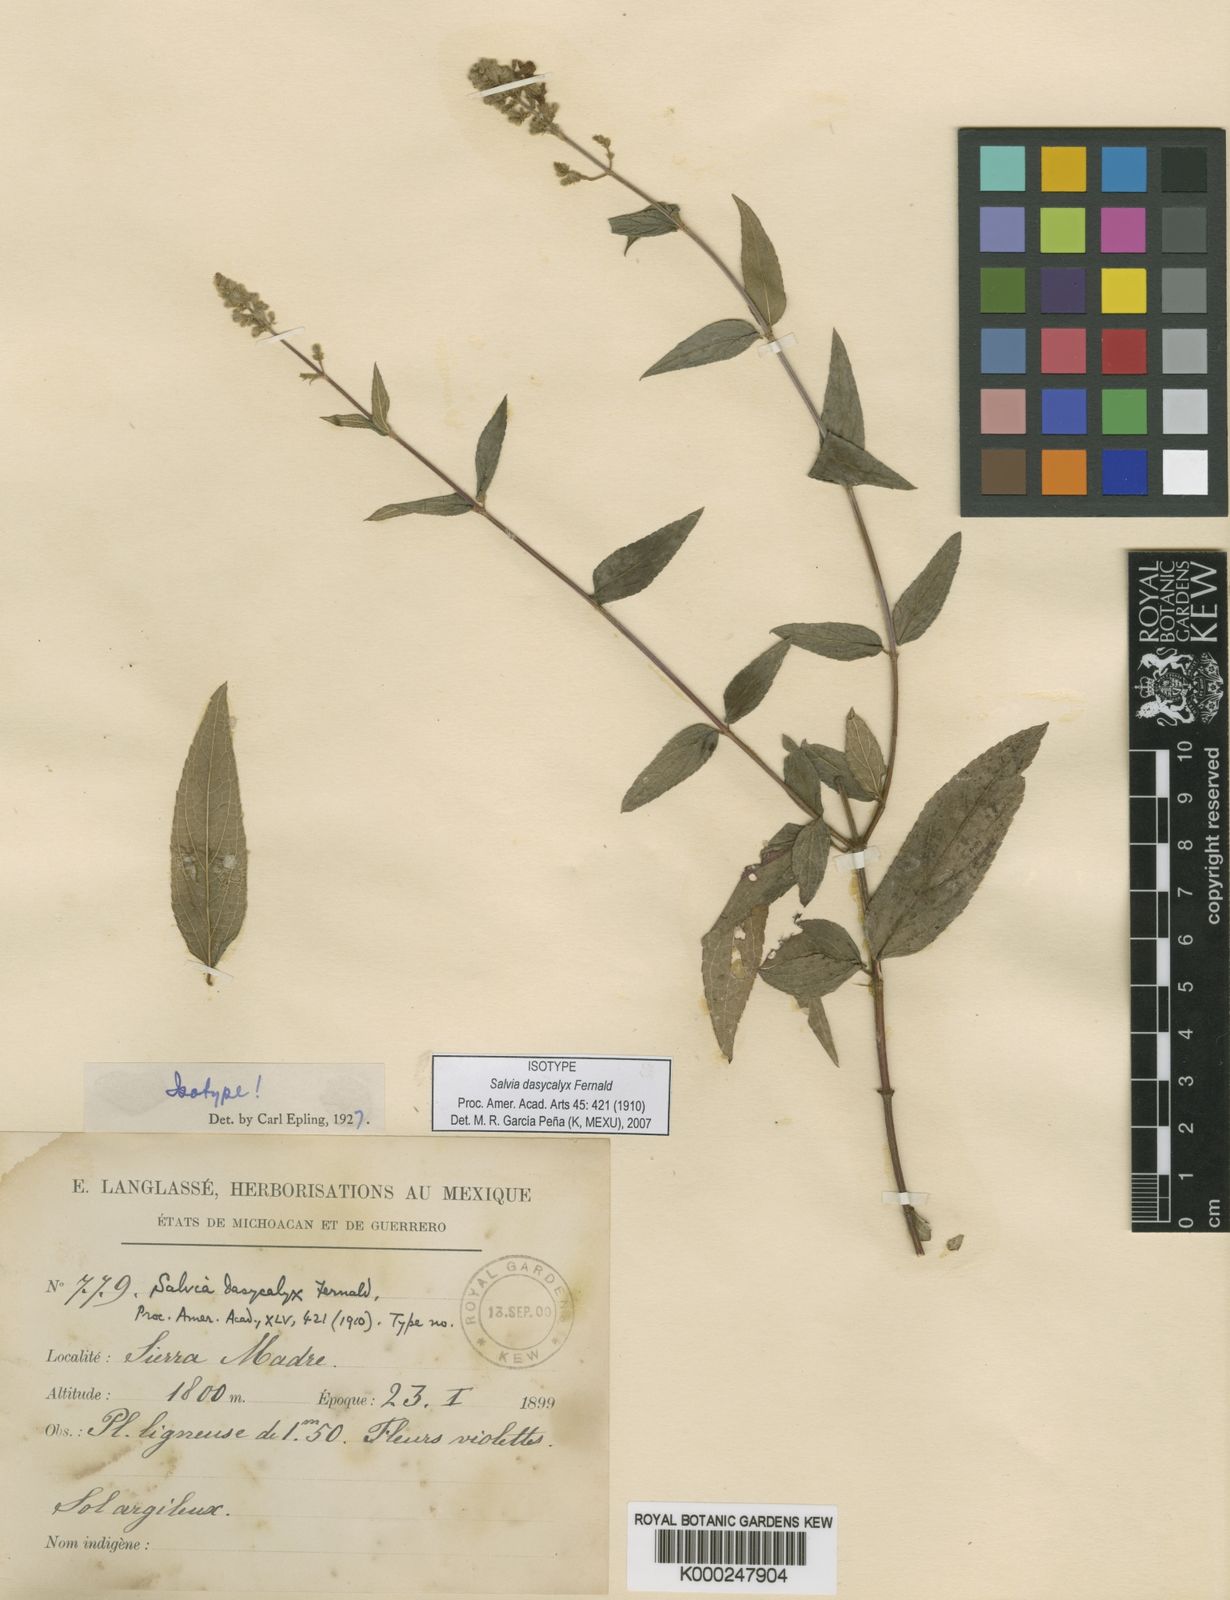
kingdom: Plantae
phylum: Tracheophyta
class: Magnoliopsida
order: Lamiales
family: Lamiaceae
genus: Salvia
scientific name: Salvia thyrsiflora
